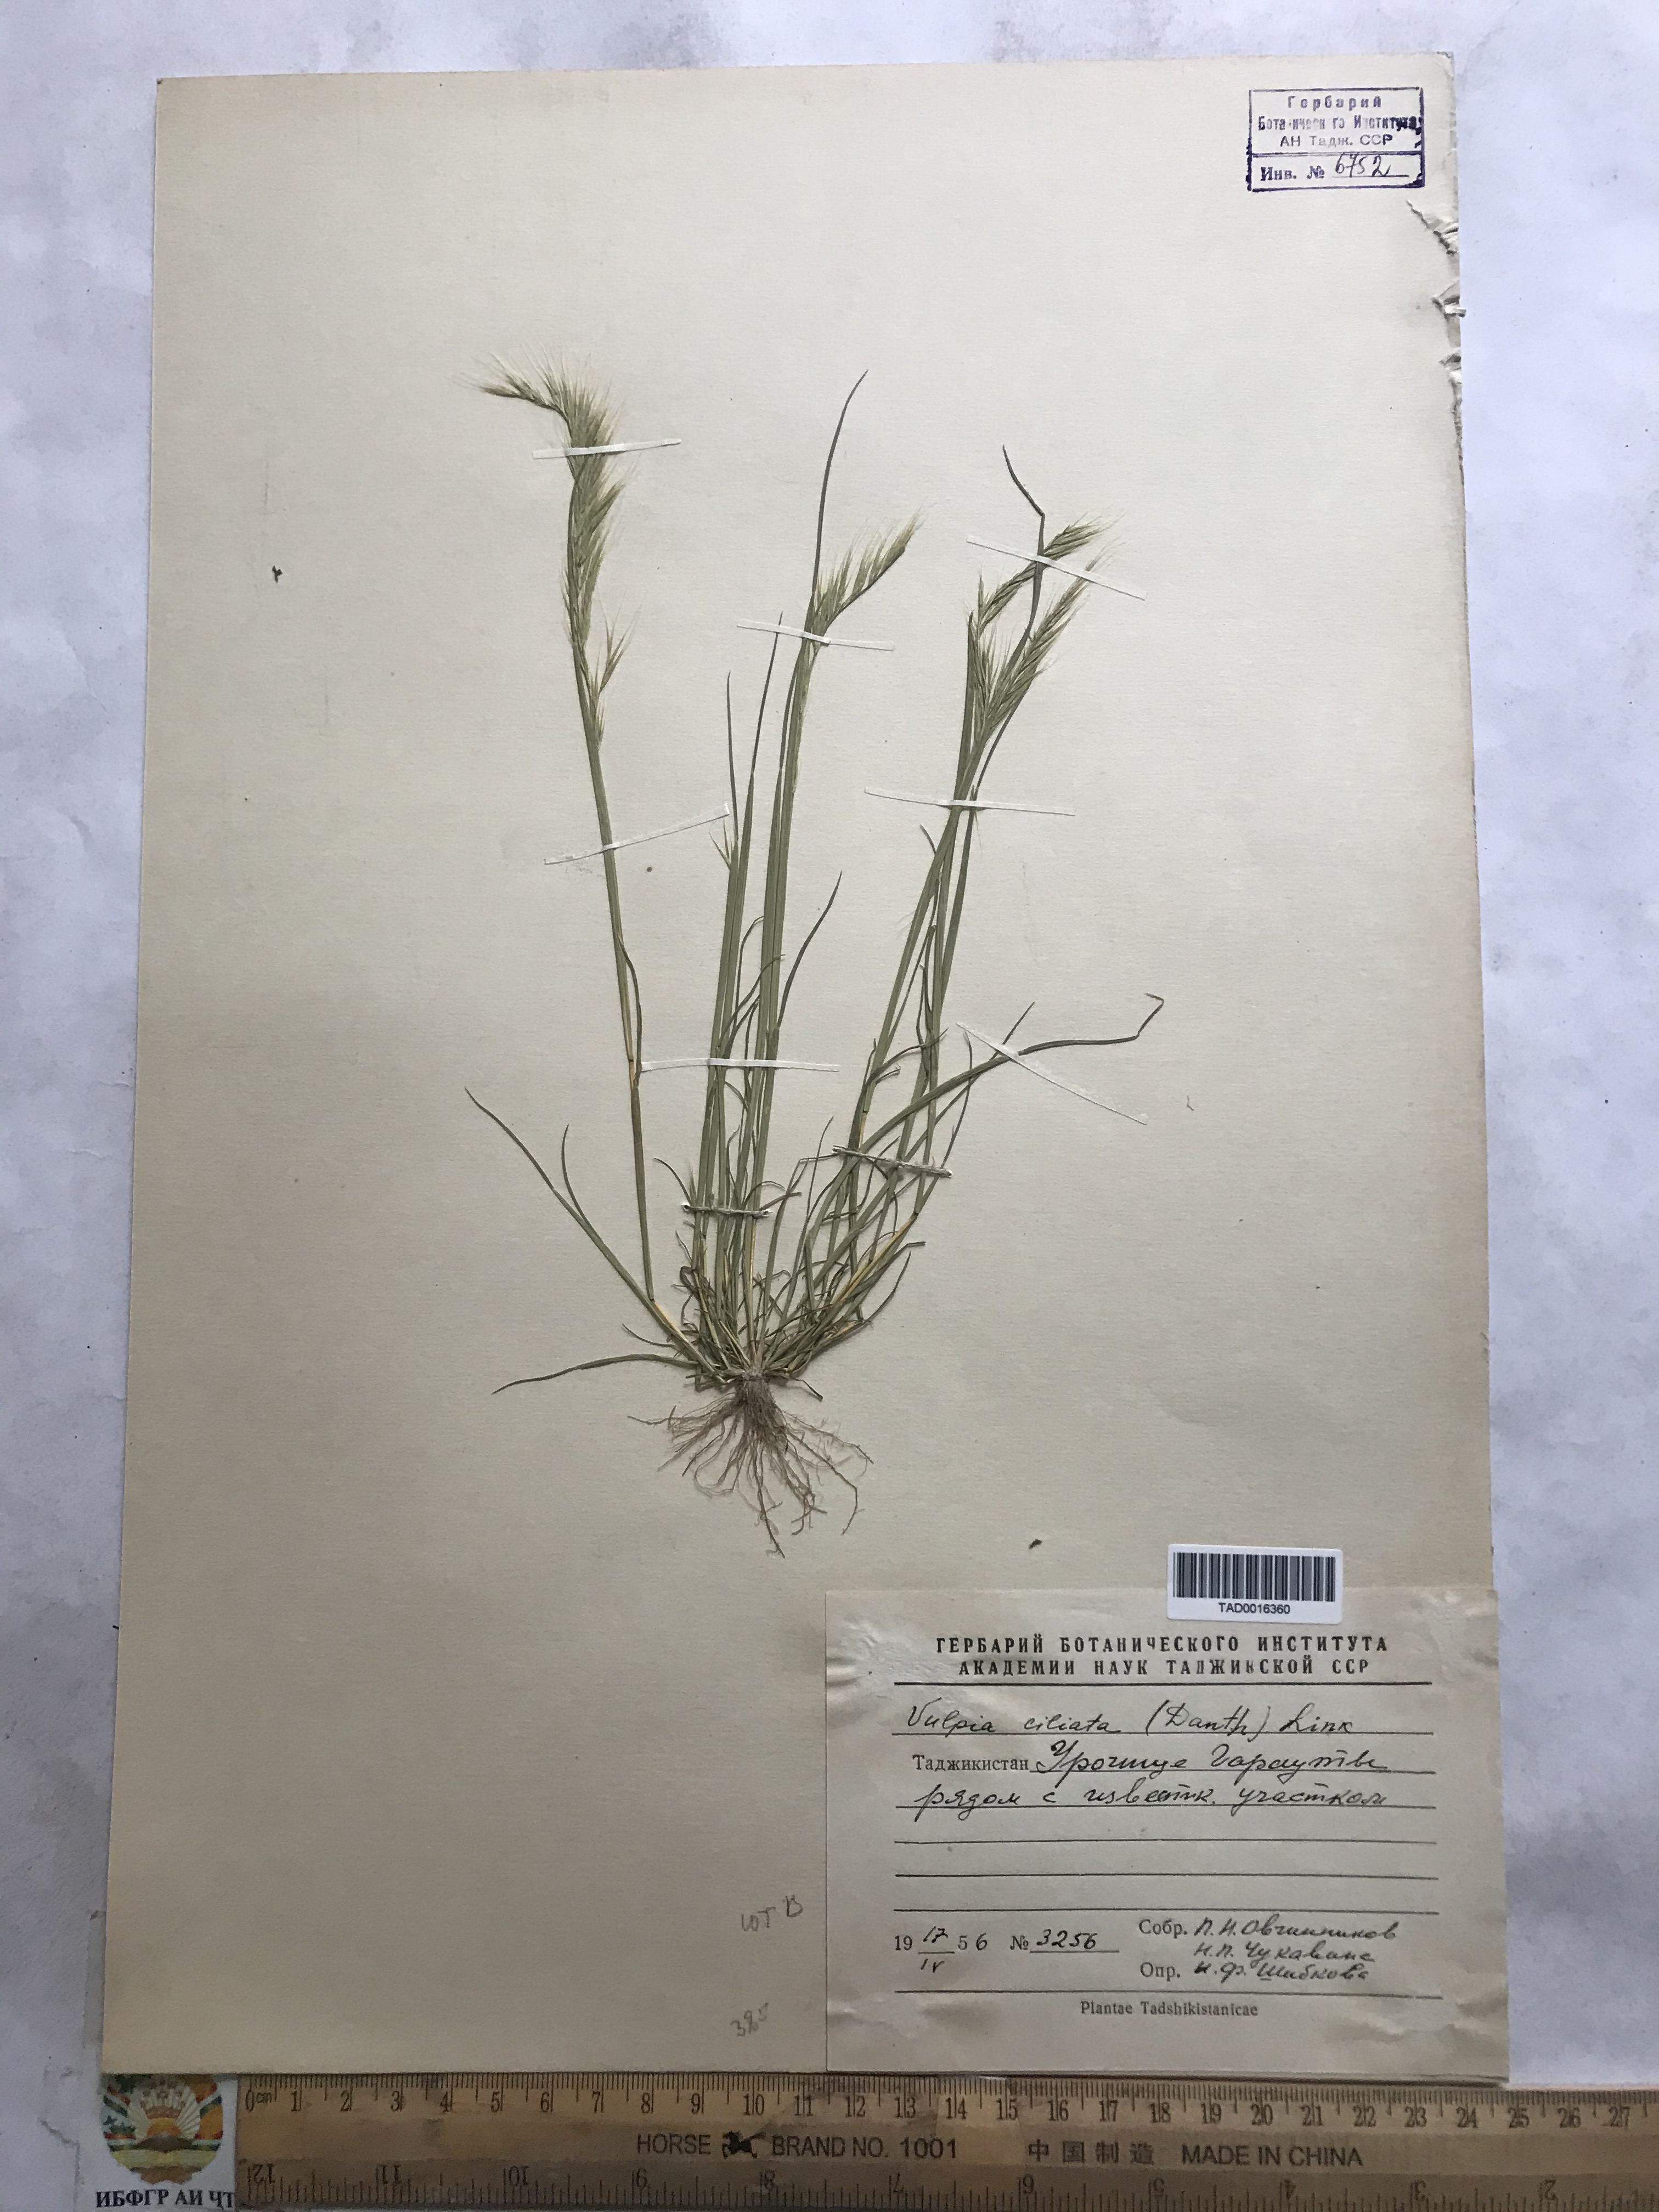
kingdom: Plantae
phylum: Tracheophyta
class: Liliopsida
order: Poales
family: Poaceae
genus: Festuca
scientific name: Festuca ambigua
